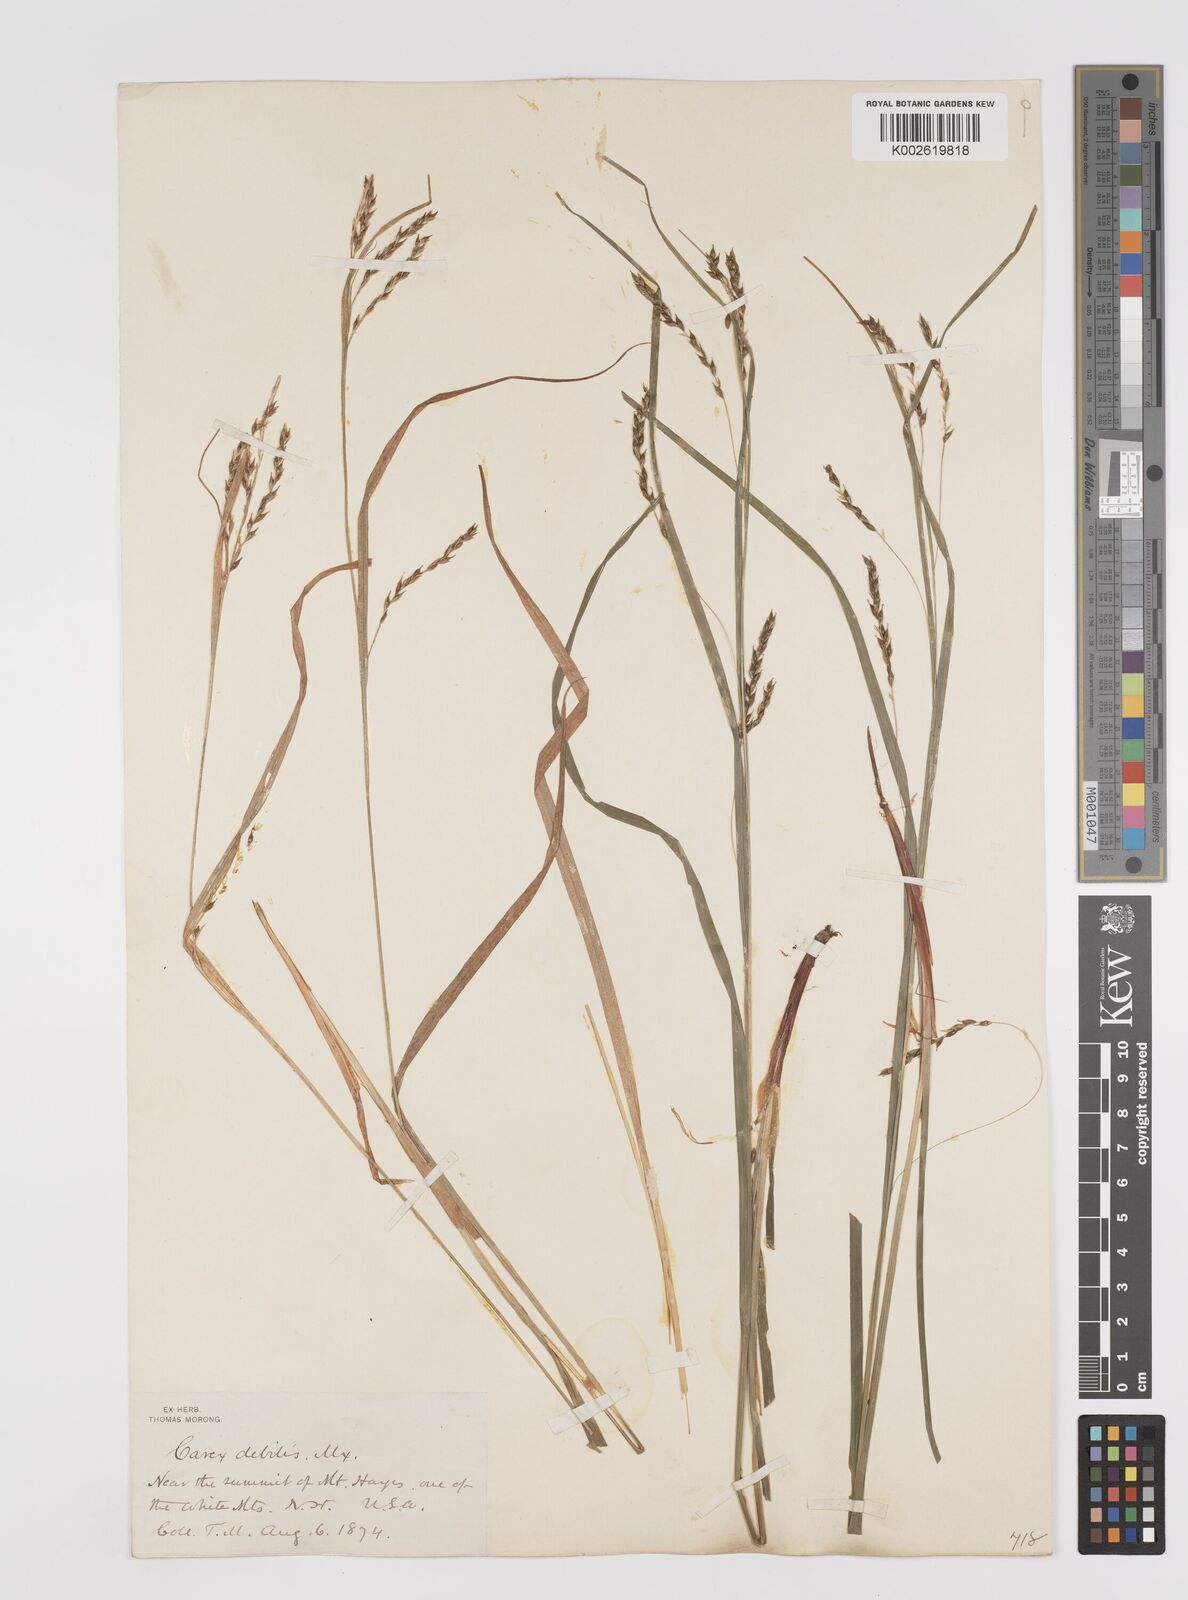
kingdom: Plantae
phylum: Tracheophyta
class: Liliopsida
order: Poales
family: Cyperaceae
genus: Carex
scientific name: Carex debilis
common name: White-edge sedge
